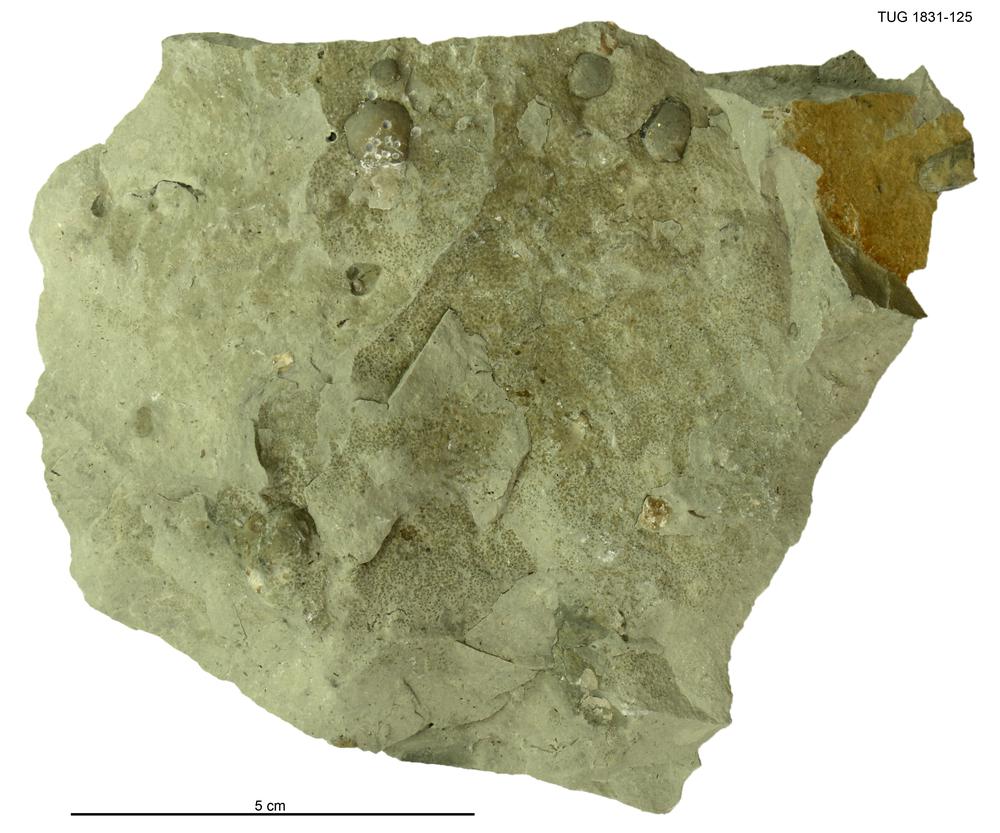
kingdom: Animalia
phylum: Brachiopoda
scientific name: Brachiopoda
